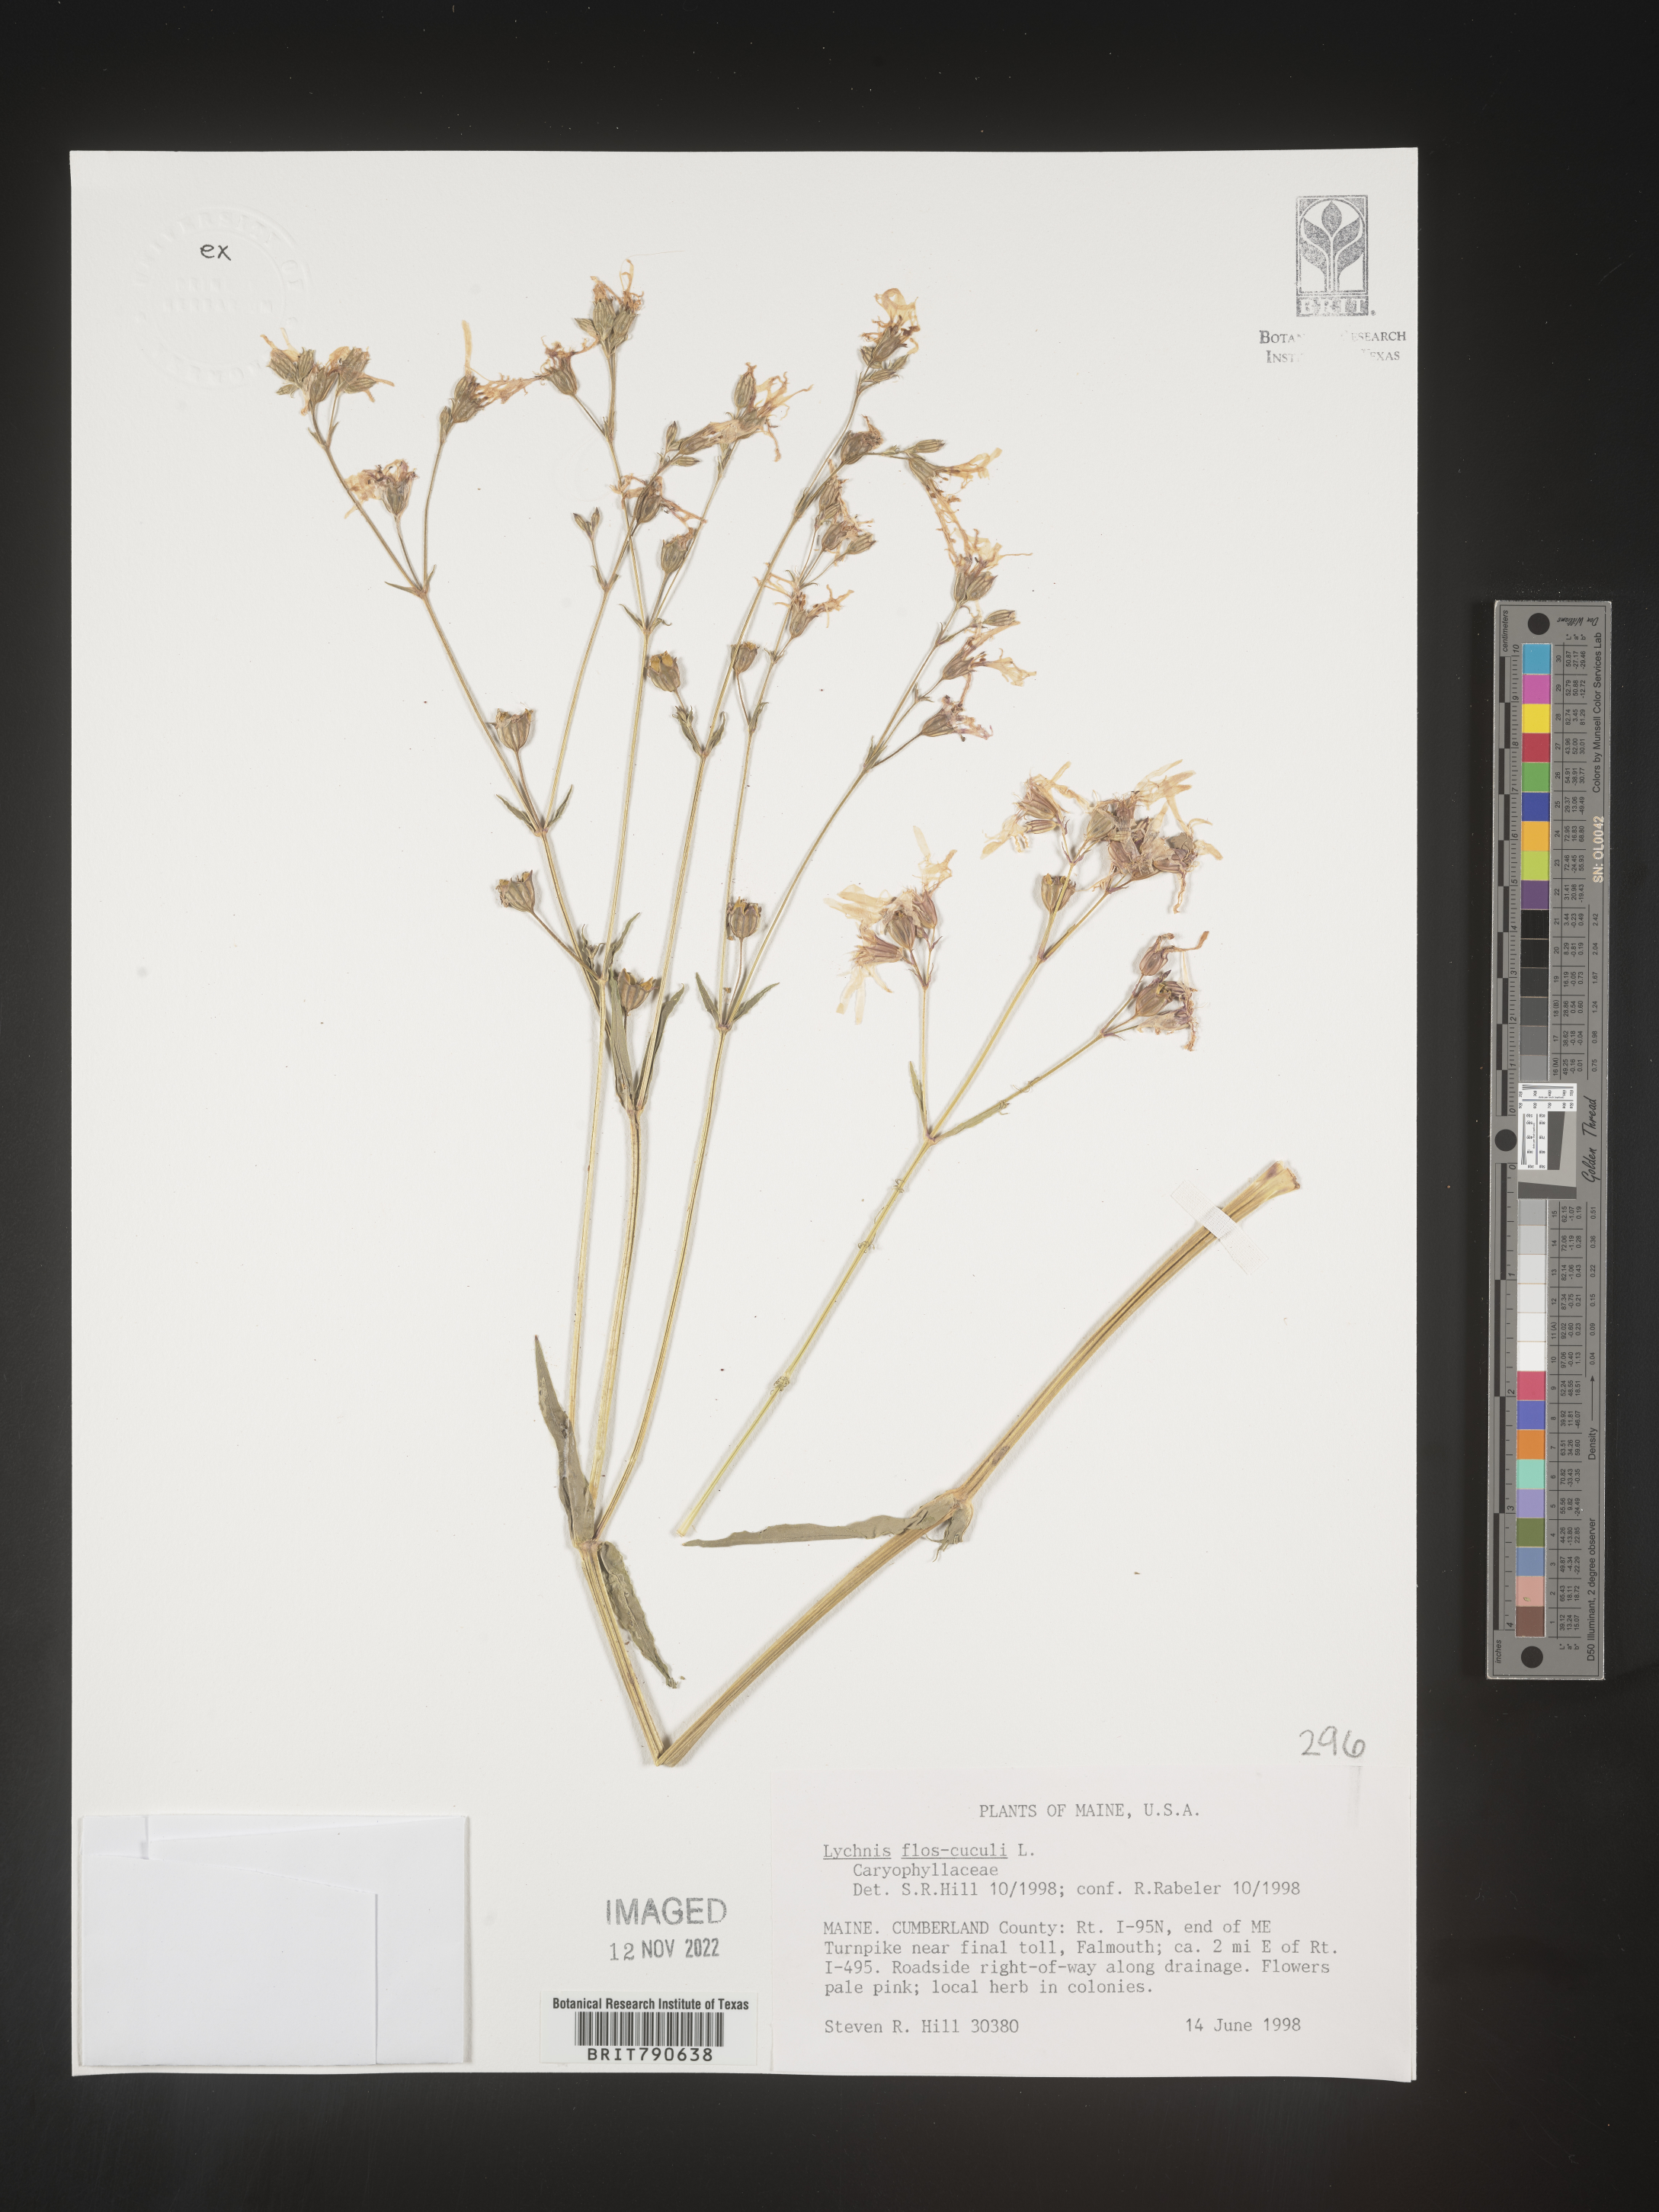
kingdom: Plantae
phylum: Tracheophyta
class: Magnoliopsida
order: Caryophyllales
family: Caryophyllaceae
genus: Silene
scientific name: Silene
